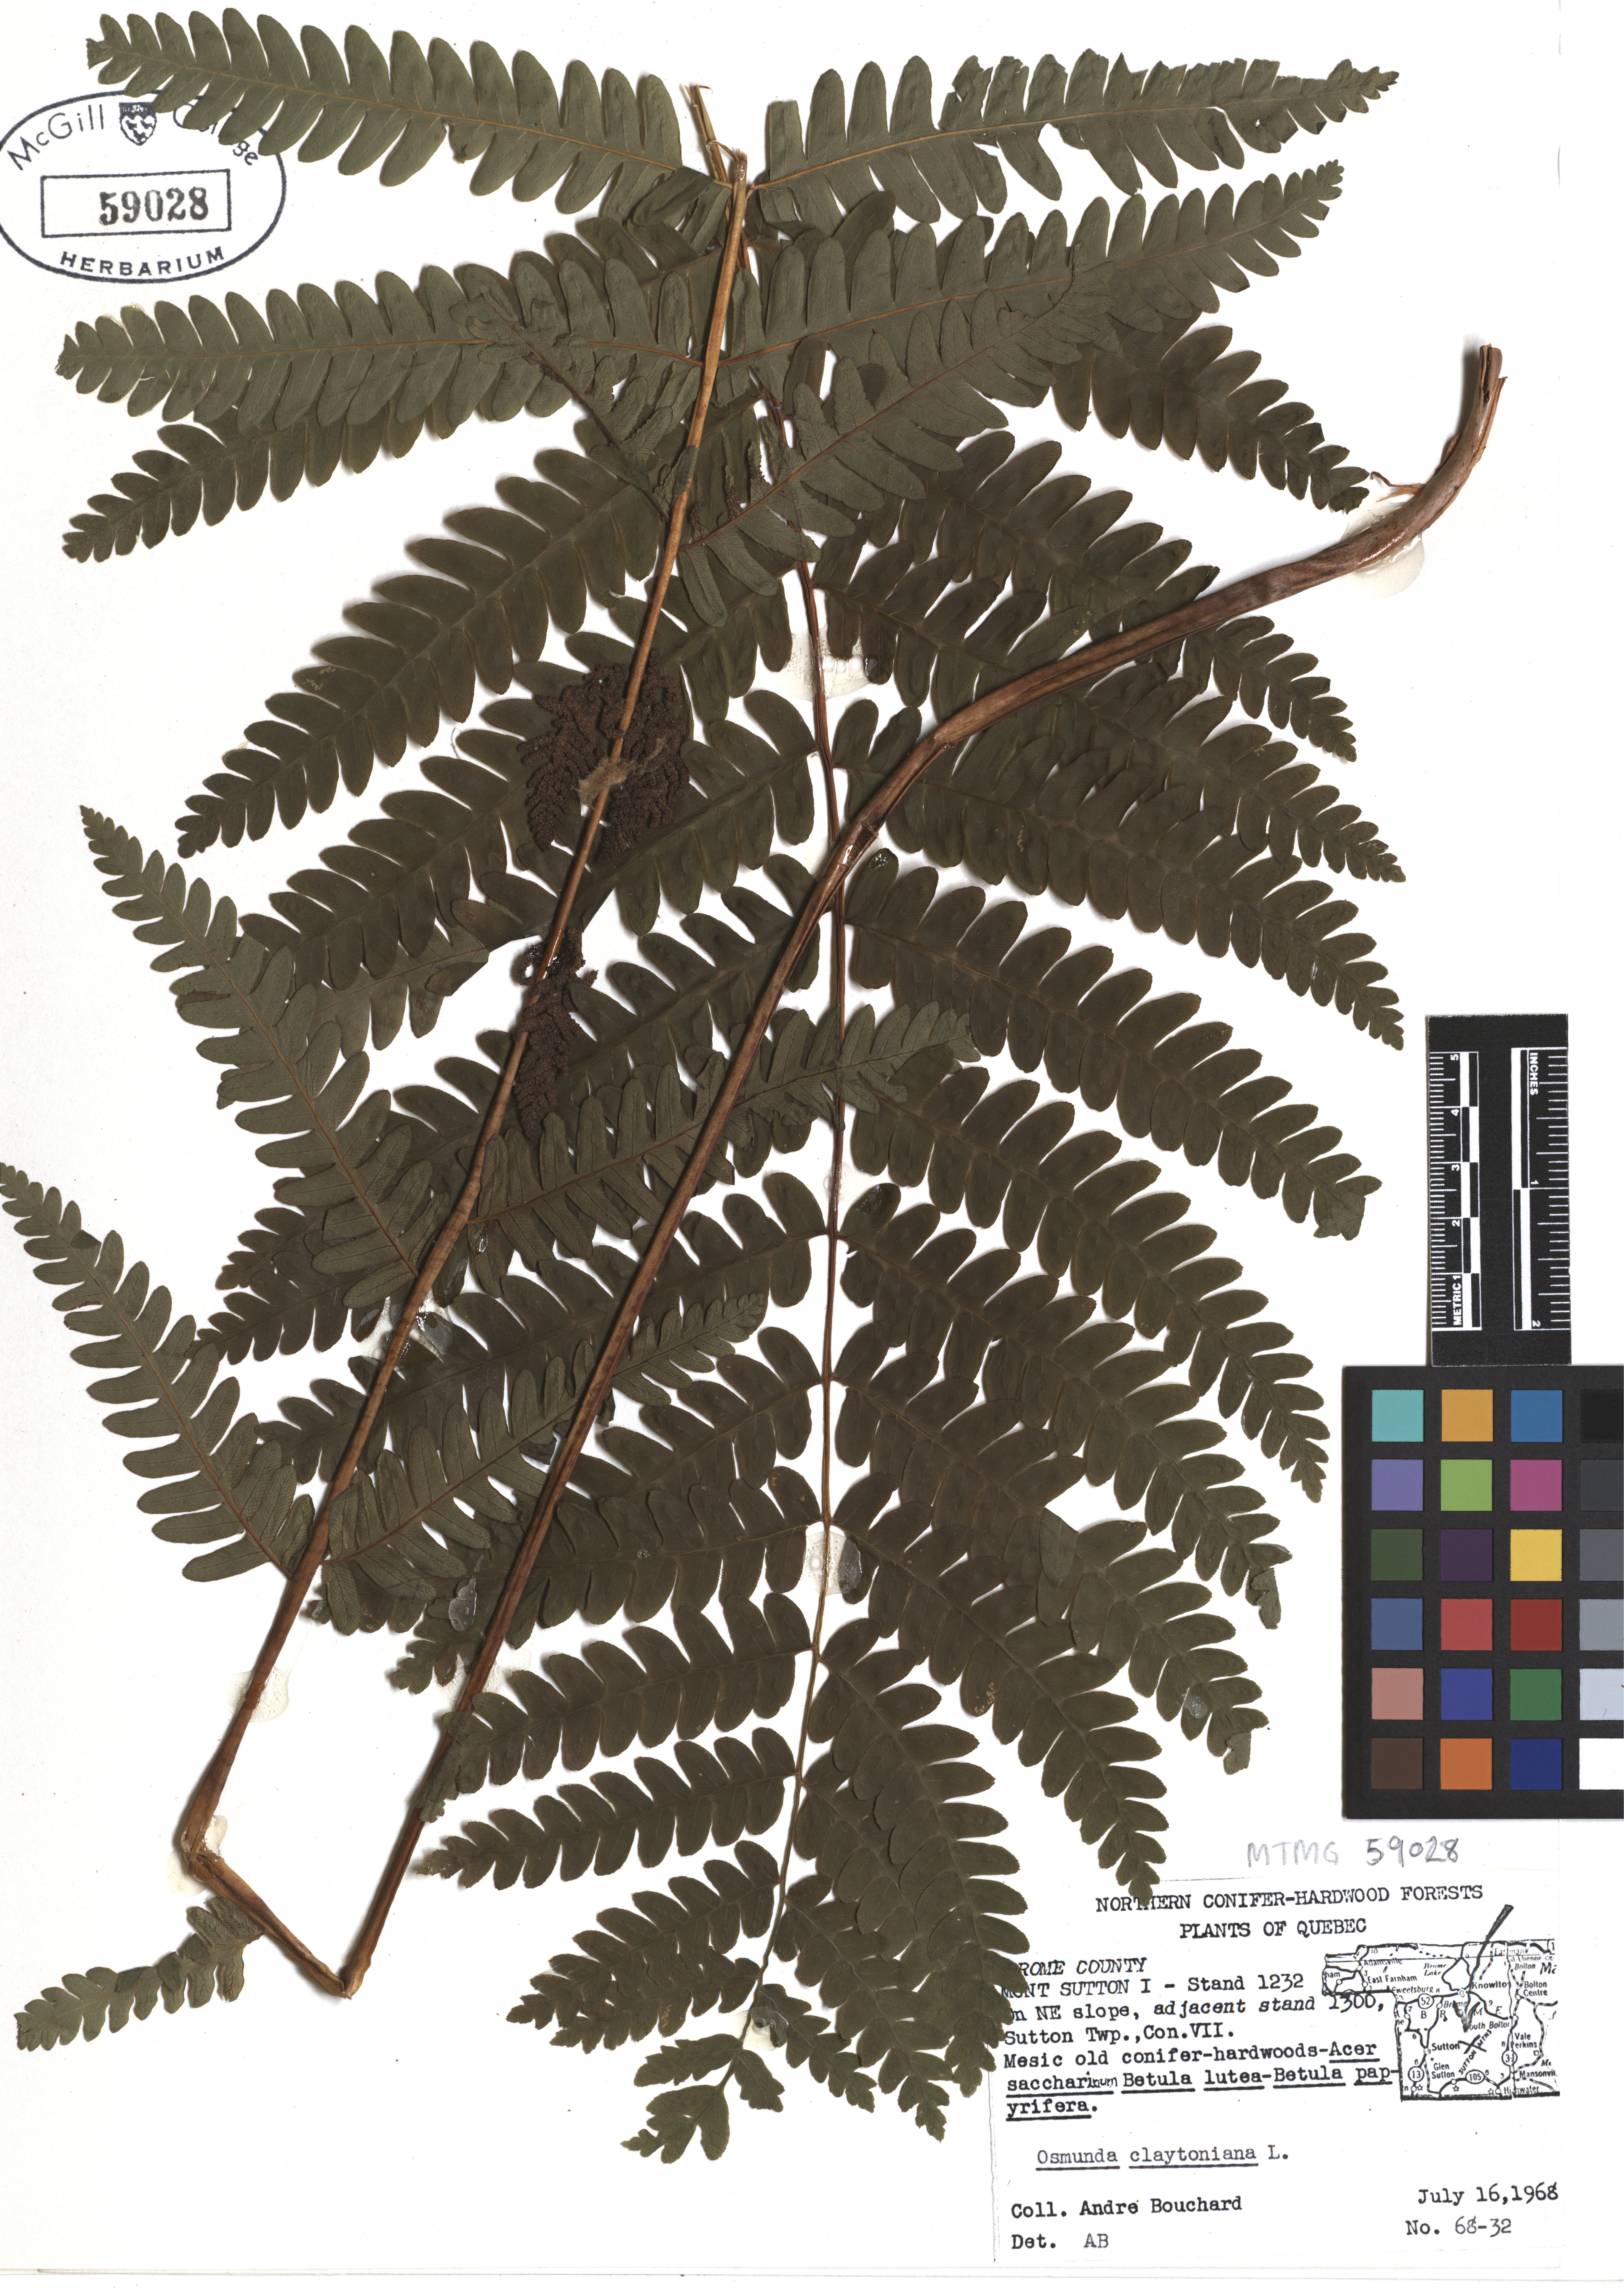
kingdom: Plantae
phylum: Tracheophyta
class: Polypodiopsida
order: Osmundales
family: Osmundaceae
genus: Claytosmunda
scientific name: Claytosmunda claytoniana
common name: Clayton's fern
